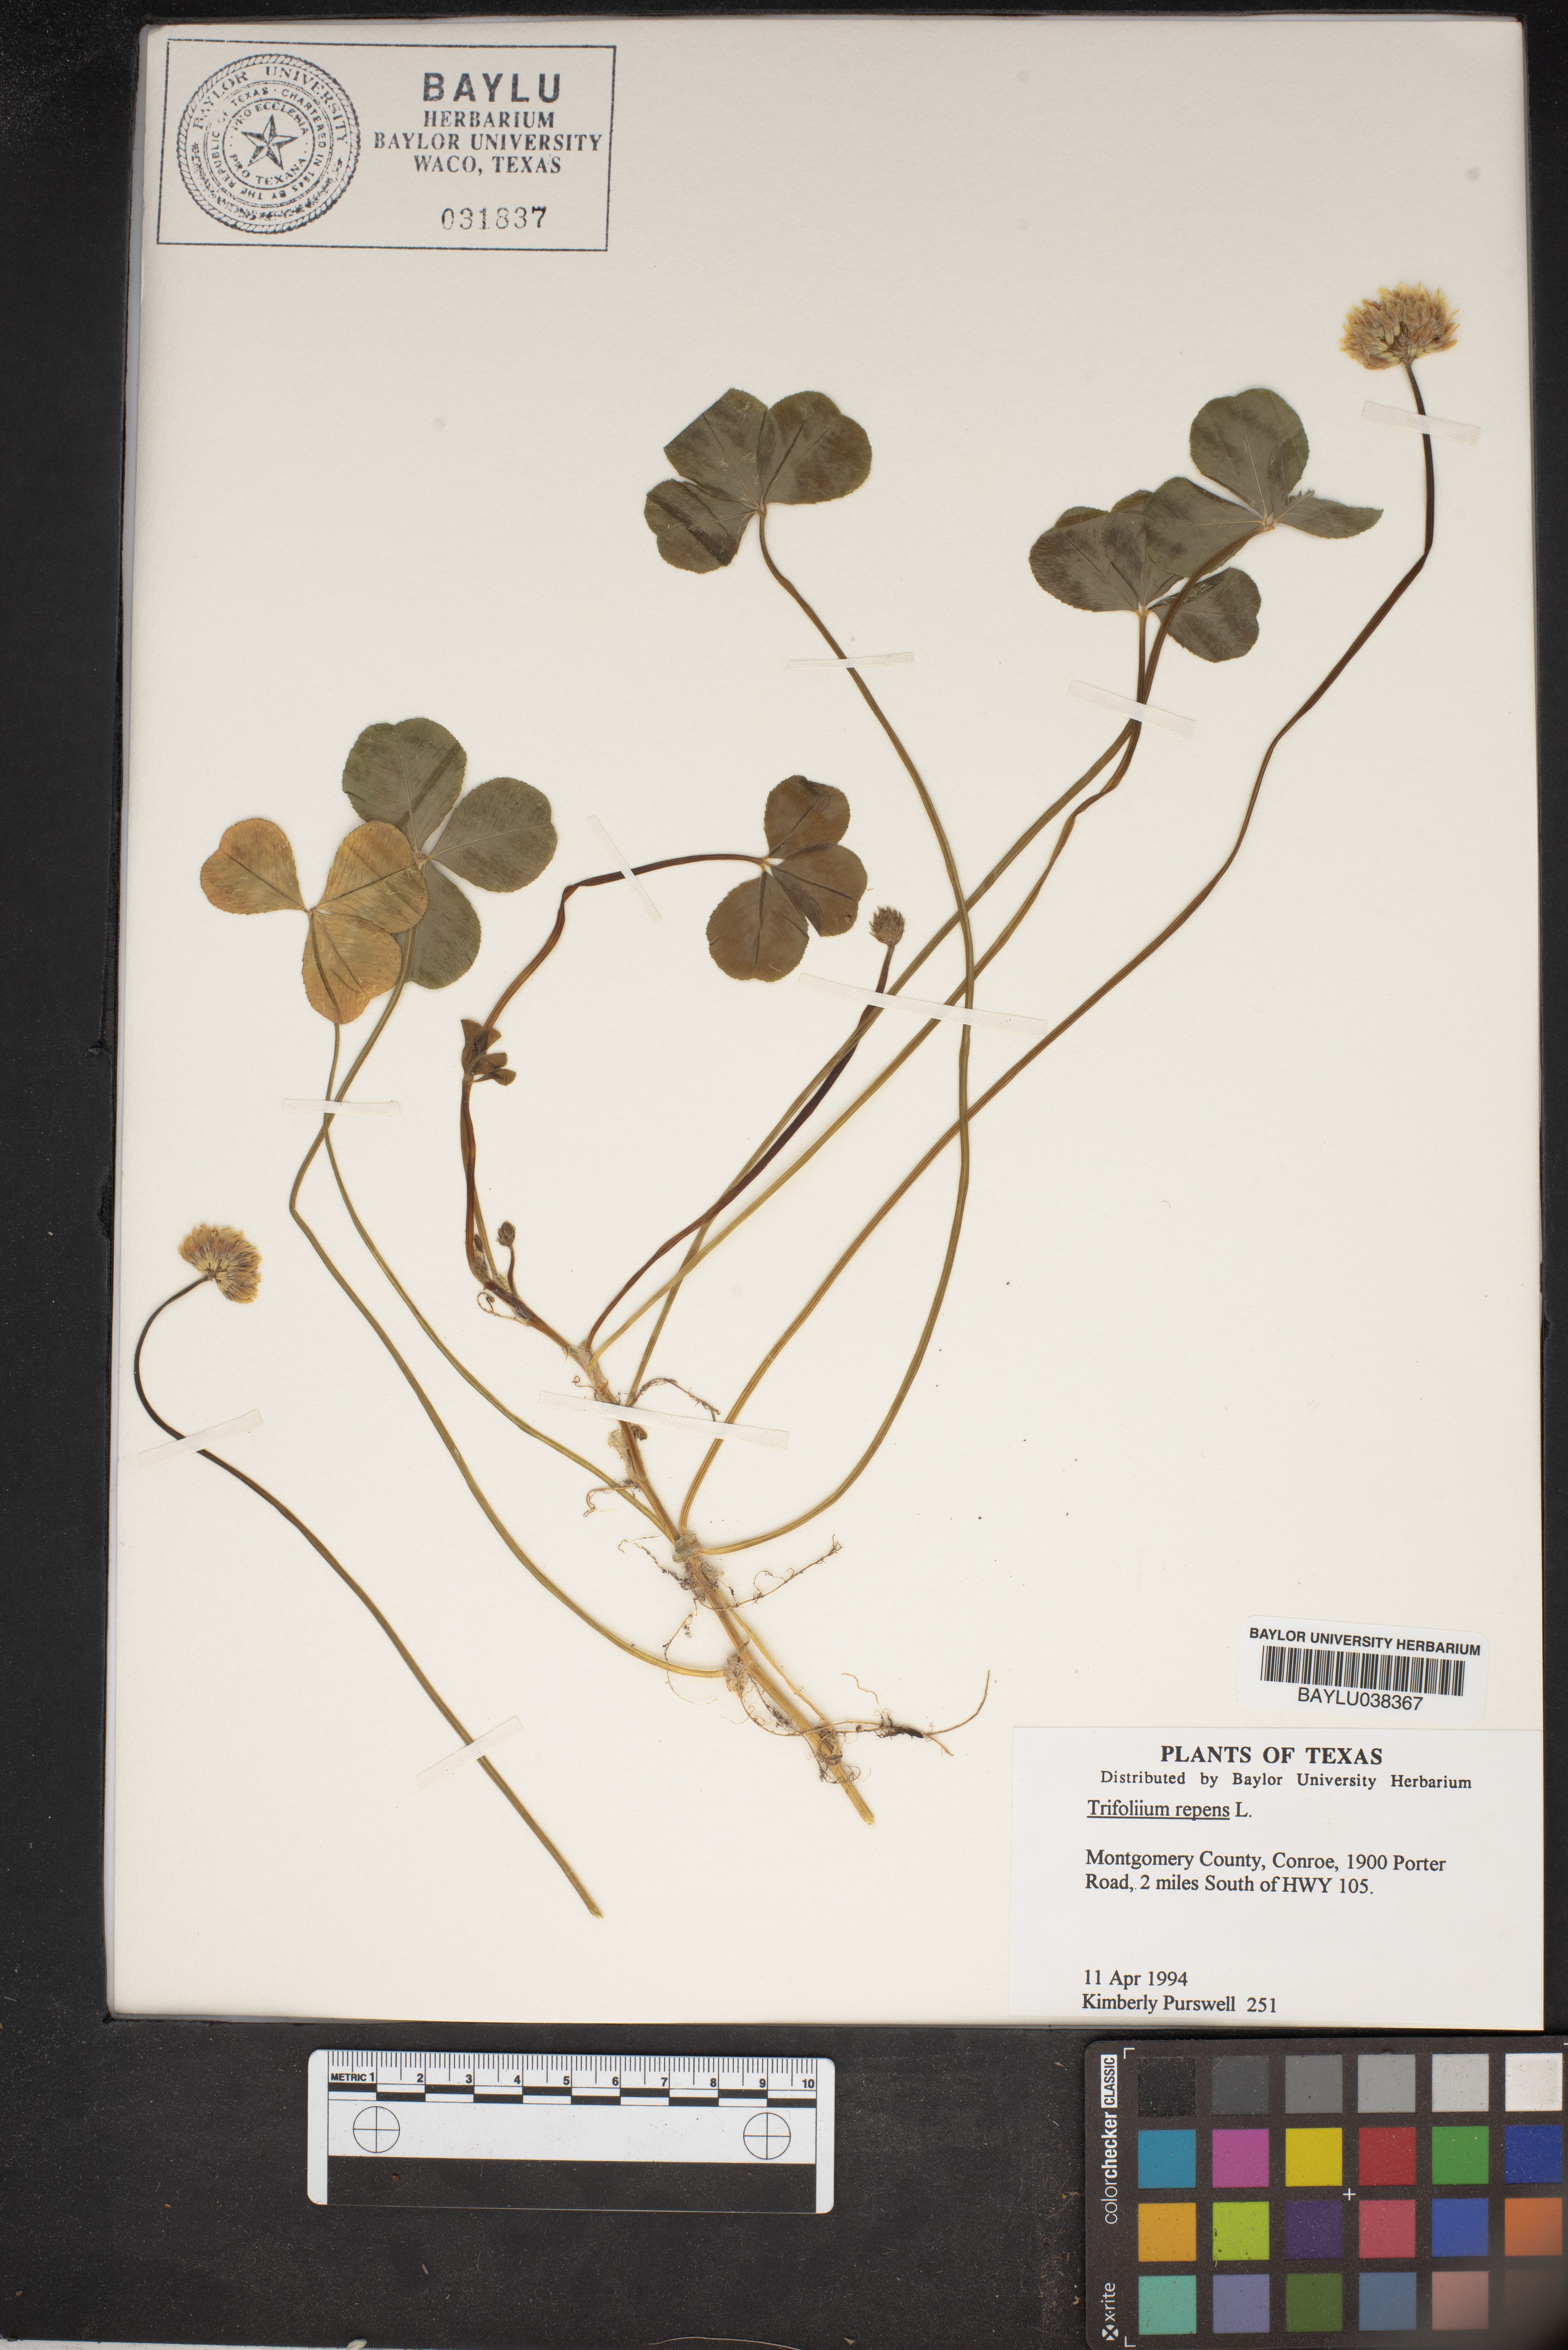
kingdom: Plantae
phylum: Tracheophyta
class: Magnoliopsida
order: Fabales
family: Fabaceae
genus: Trifolium
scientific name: Trifolium repens
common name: White clover
